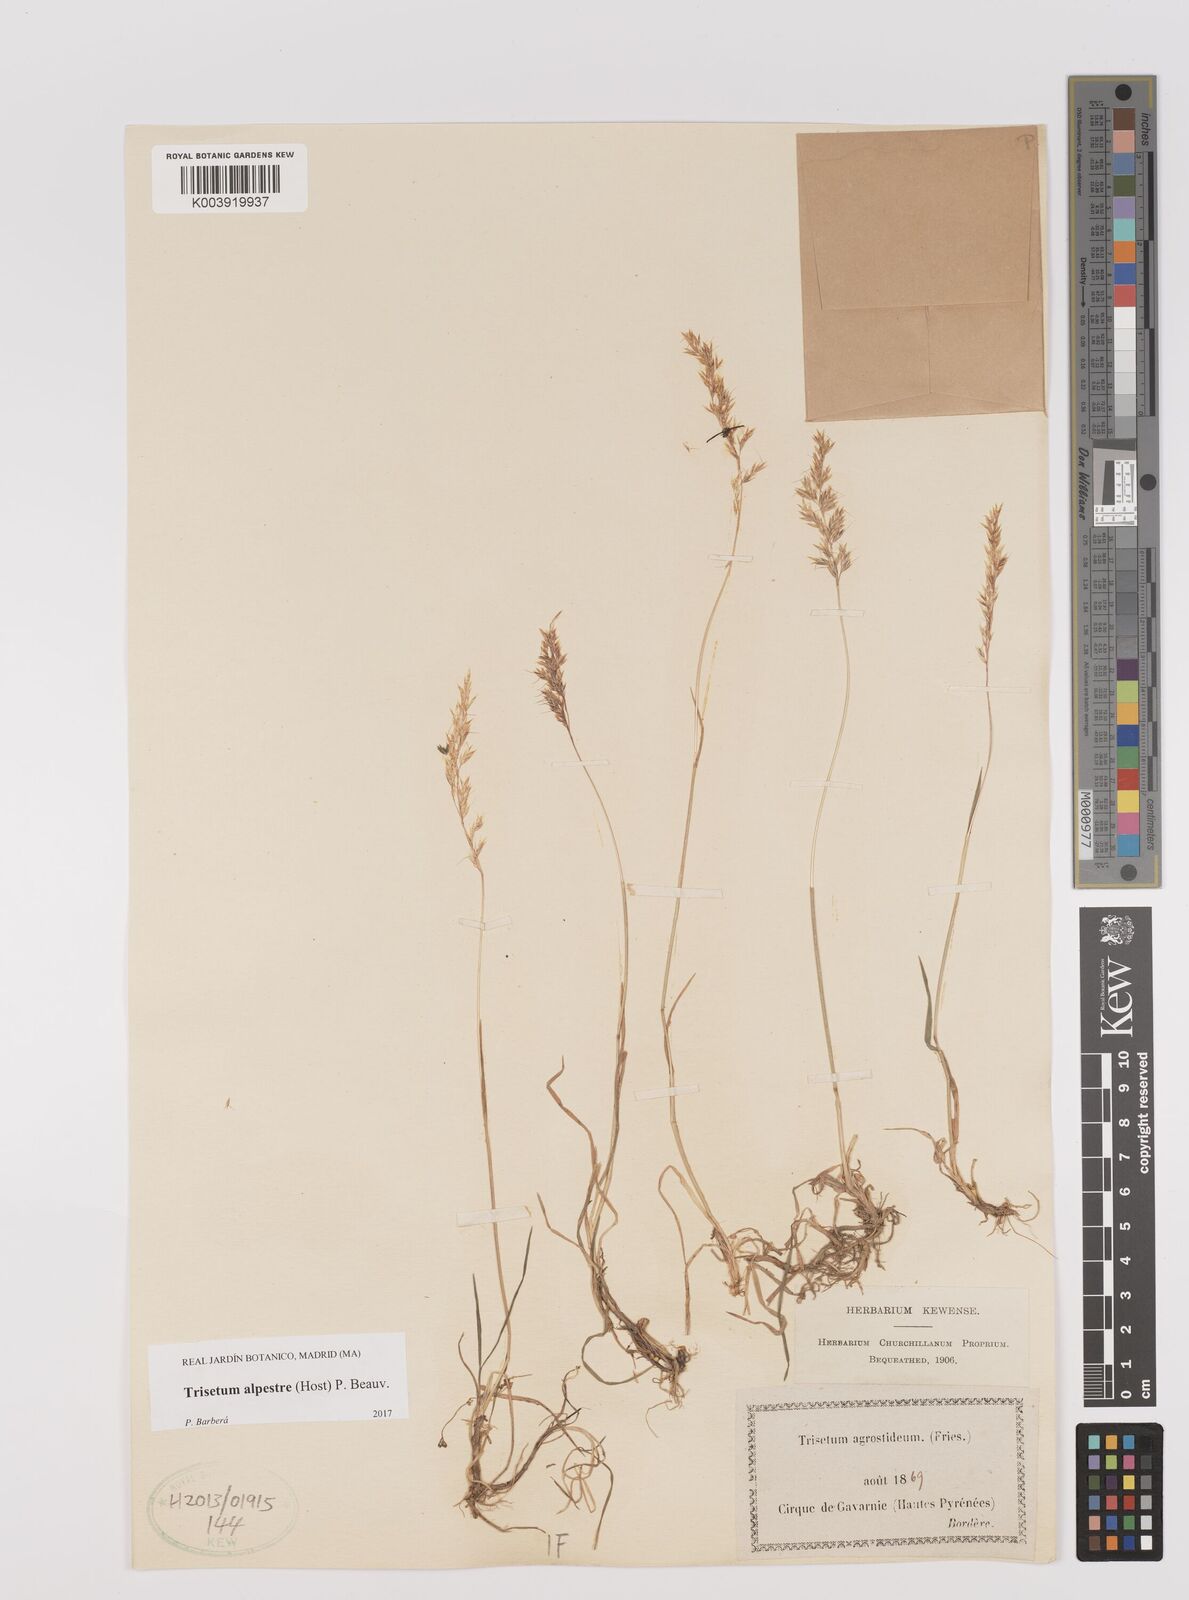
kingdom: Plantae
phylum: Tracheophyta
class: Liliopsida
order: Poales
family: Poaceae
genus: Trisetum
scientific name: Trisetum alpestre
